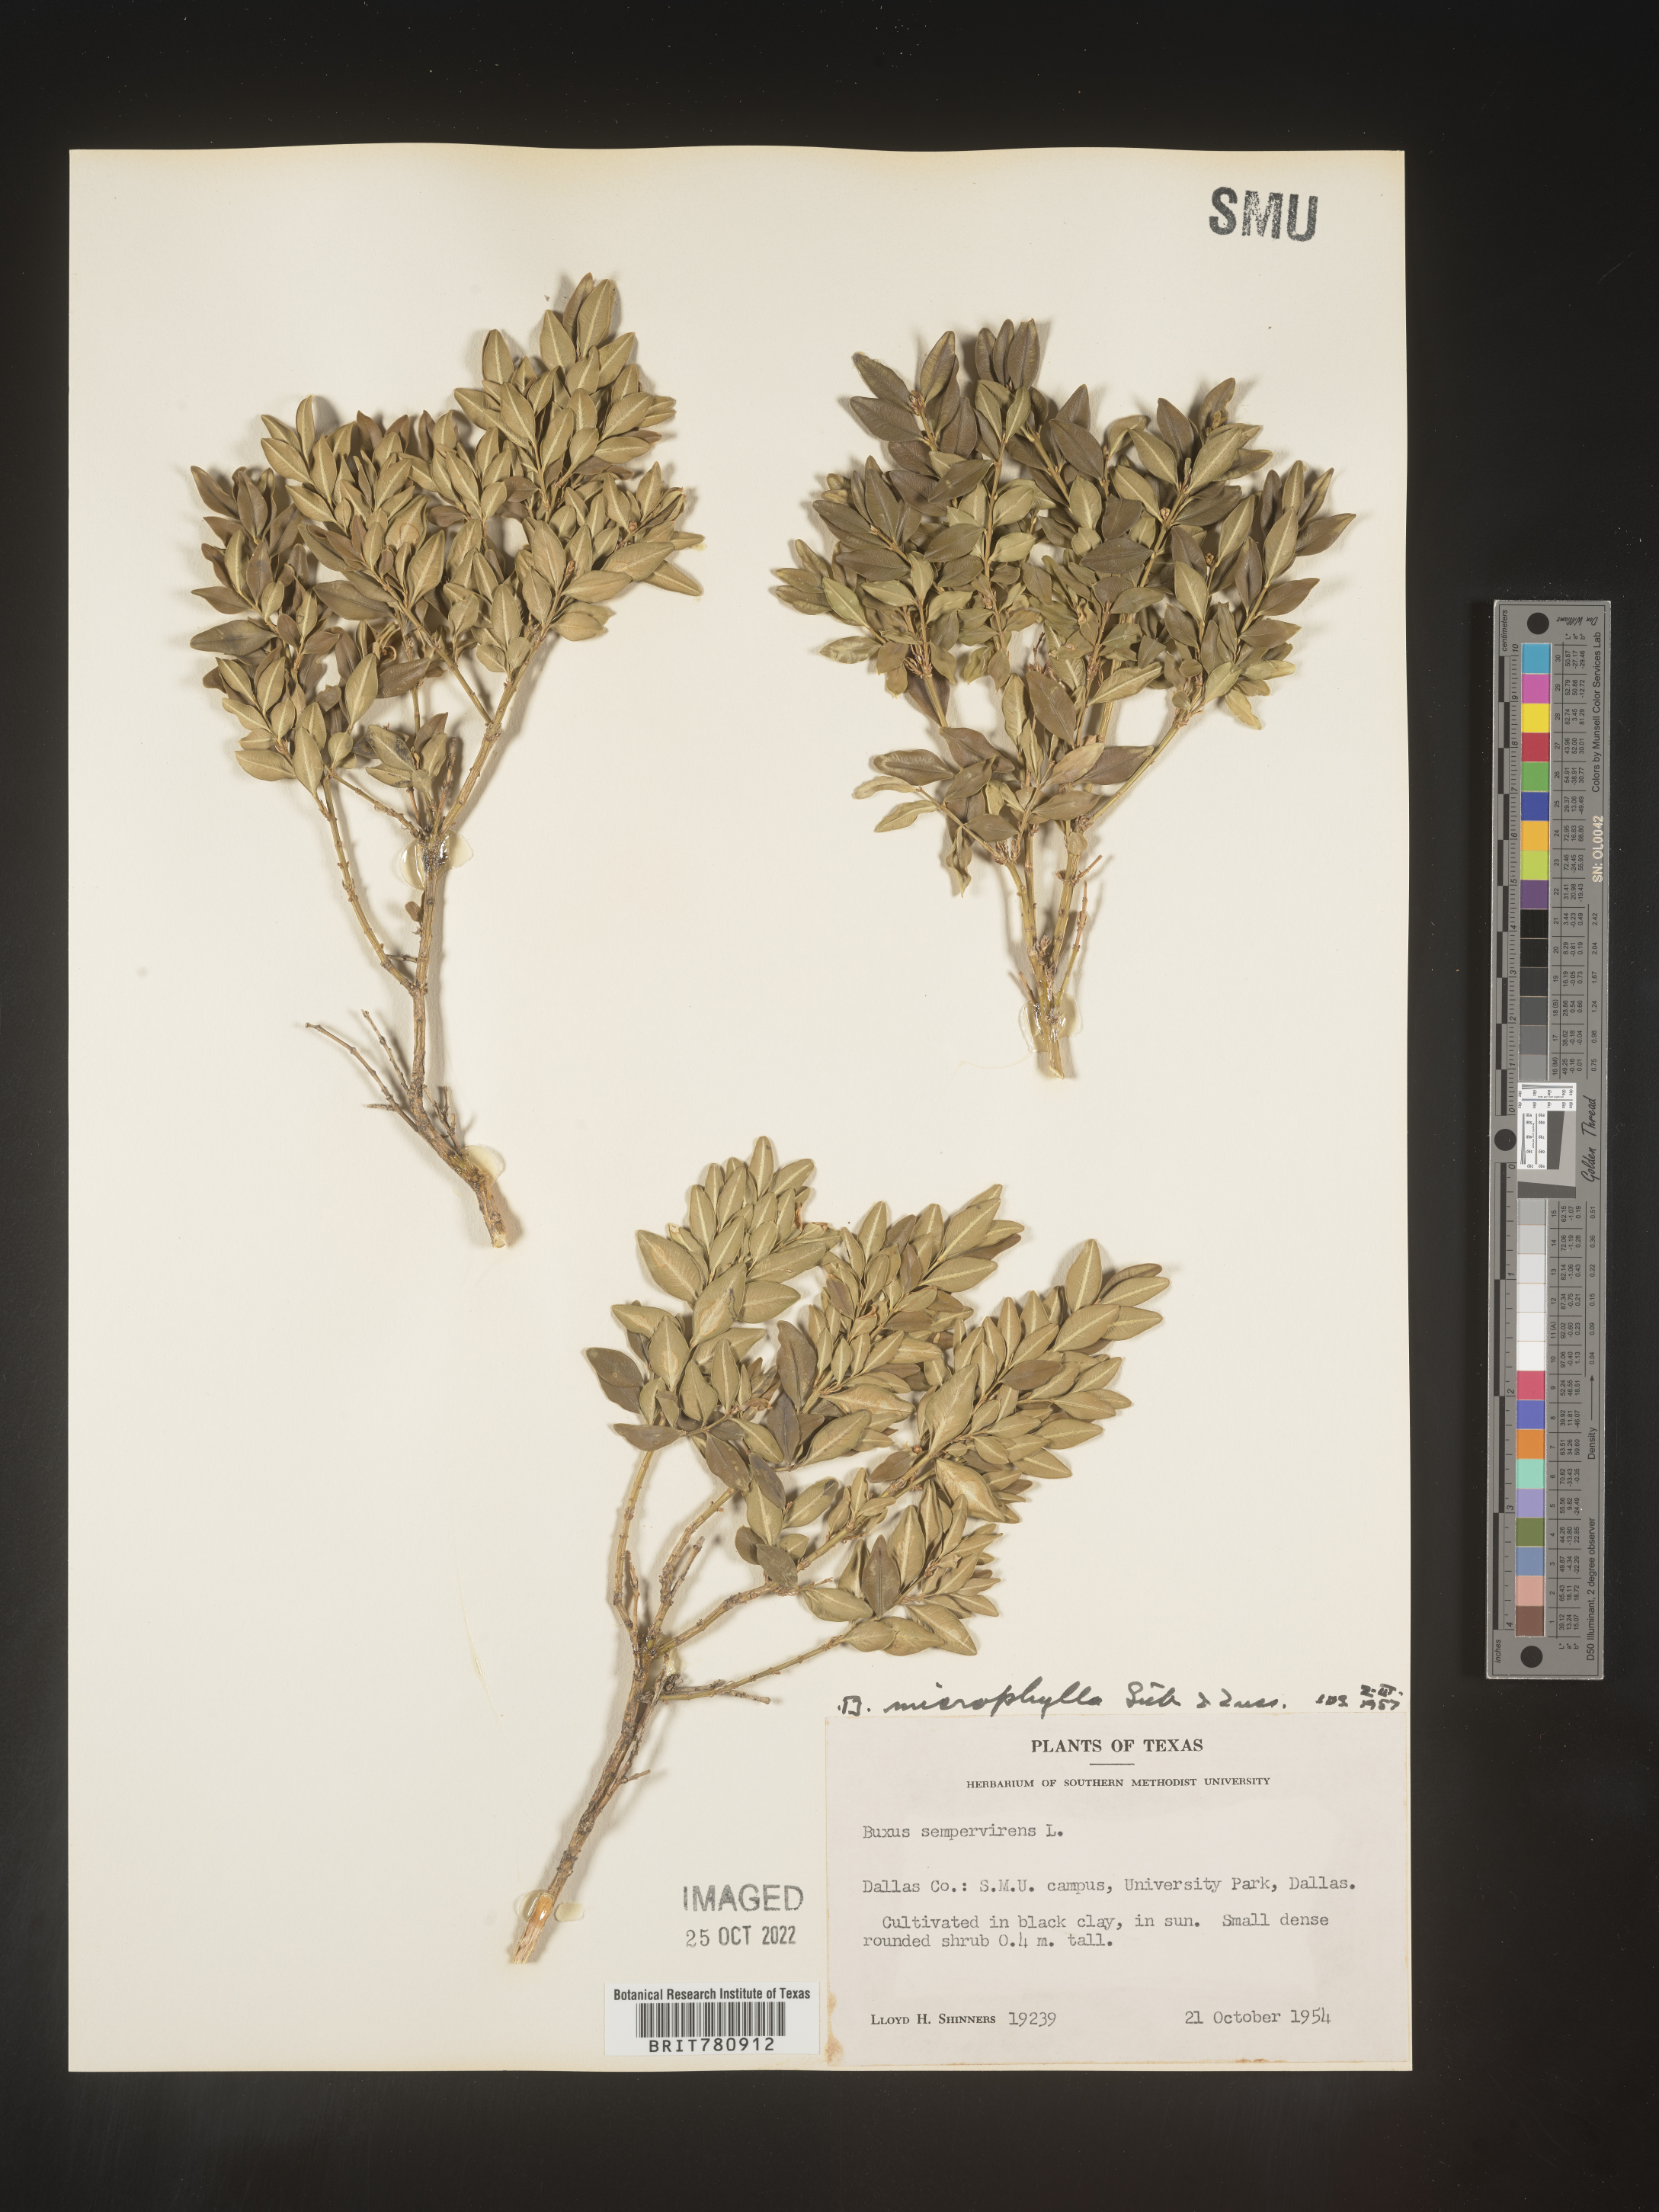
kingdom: Plantae
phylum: Tracheophyta
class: Magnoliopsida
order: Buxales
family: Buxaceae
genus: Buxus
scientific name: Buxus
